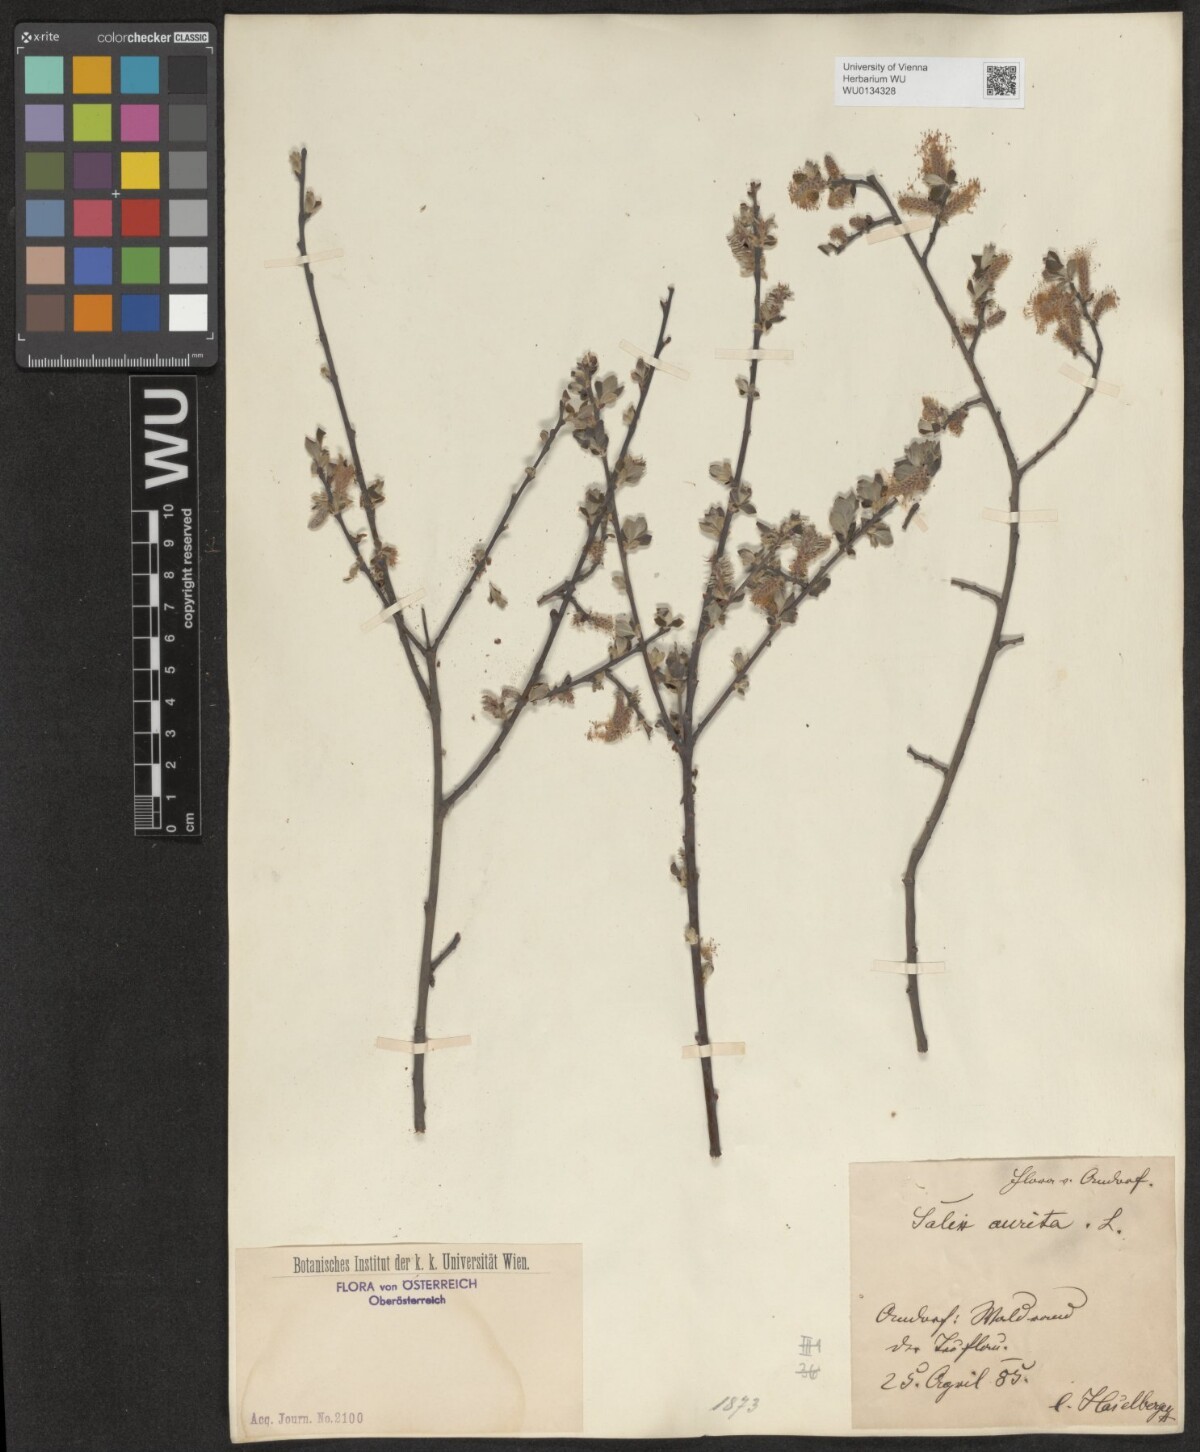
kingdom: Plantae
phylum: Tracheophyta
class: Magnoliopsida
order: Malpighiales
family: Salicaceae
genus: Salix
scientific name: Salix aurita
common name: Eared willow
